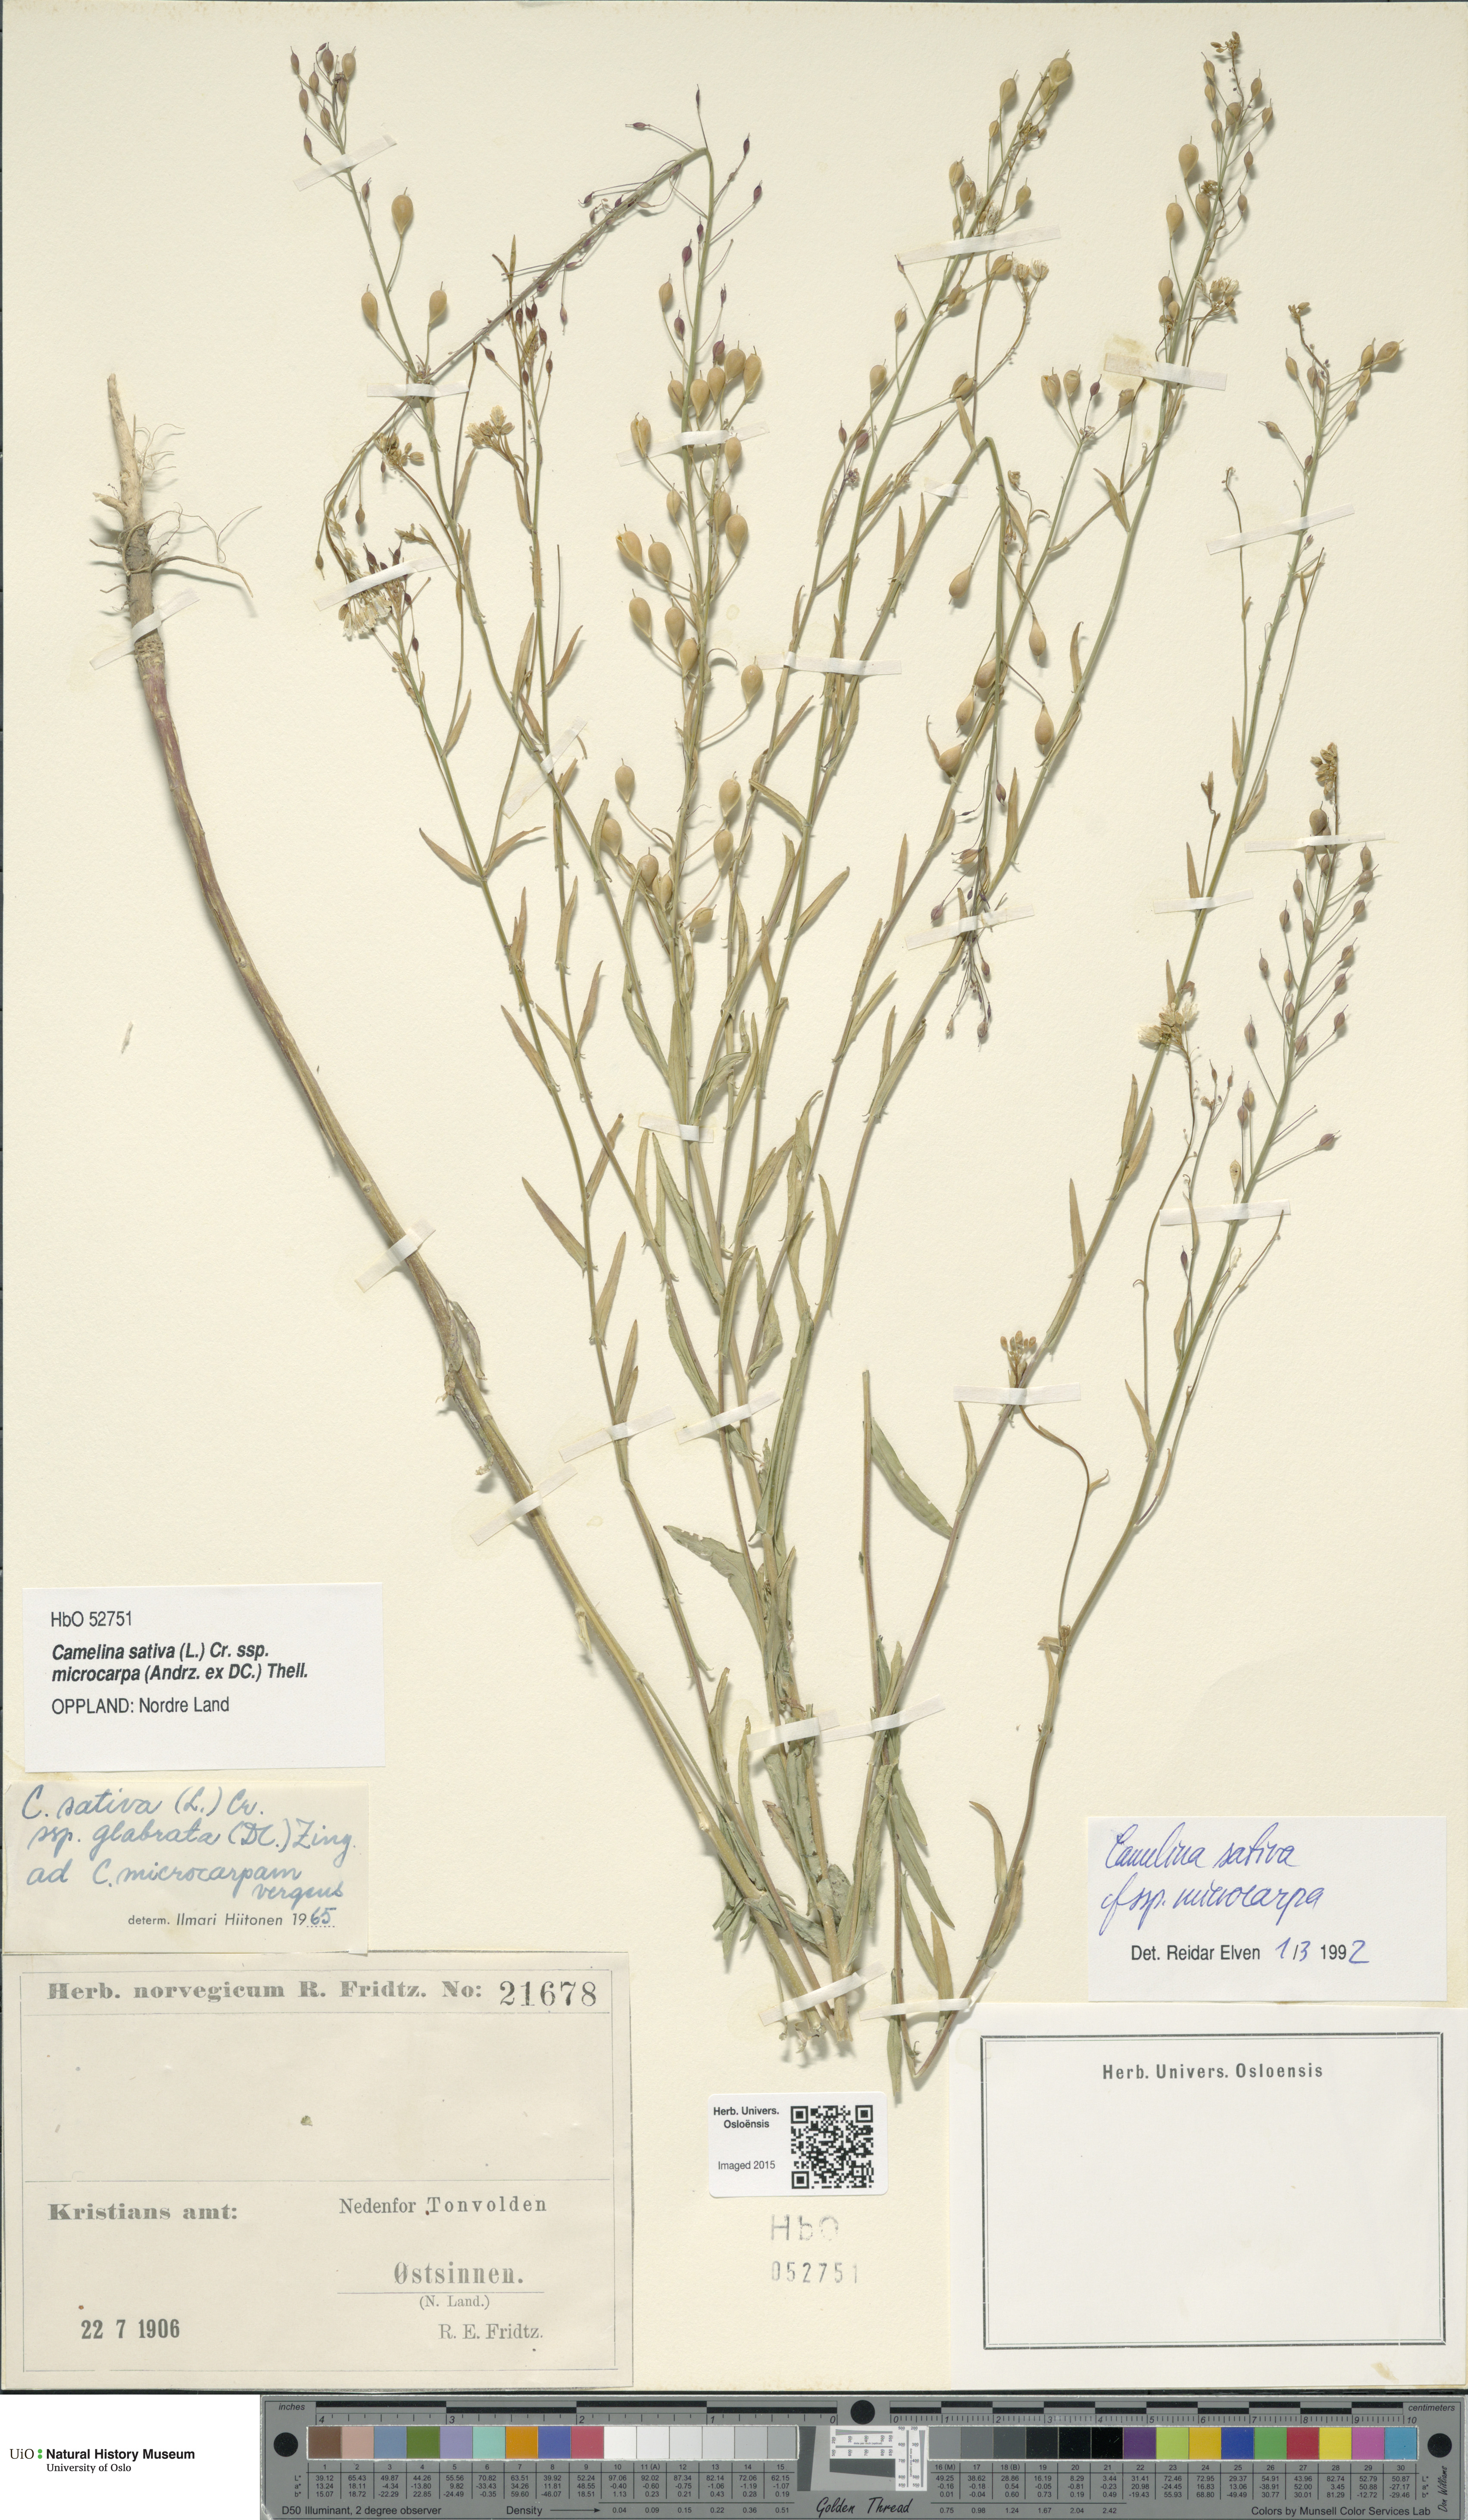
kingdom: Plantae
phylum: Tracheophyta
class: Magnoliopsida
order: Brassicales
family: Brassicaceae
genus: Camelina
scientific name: Camelina sativa
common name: Gold-of-pleasure
